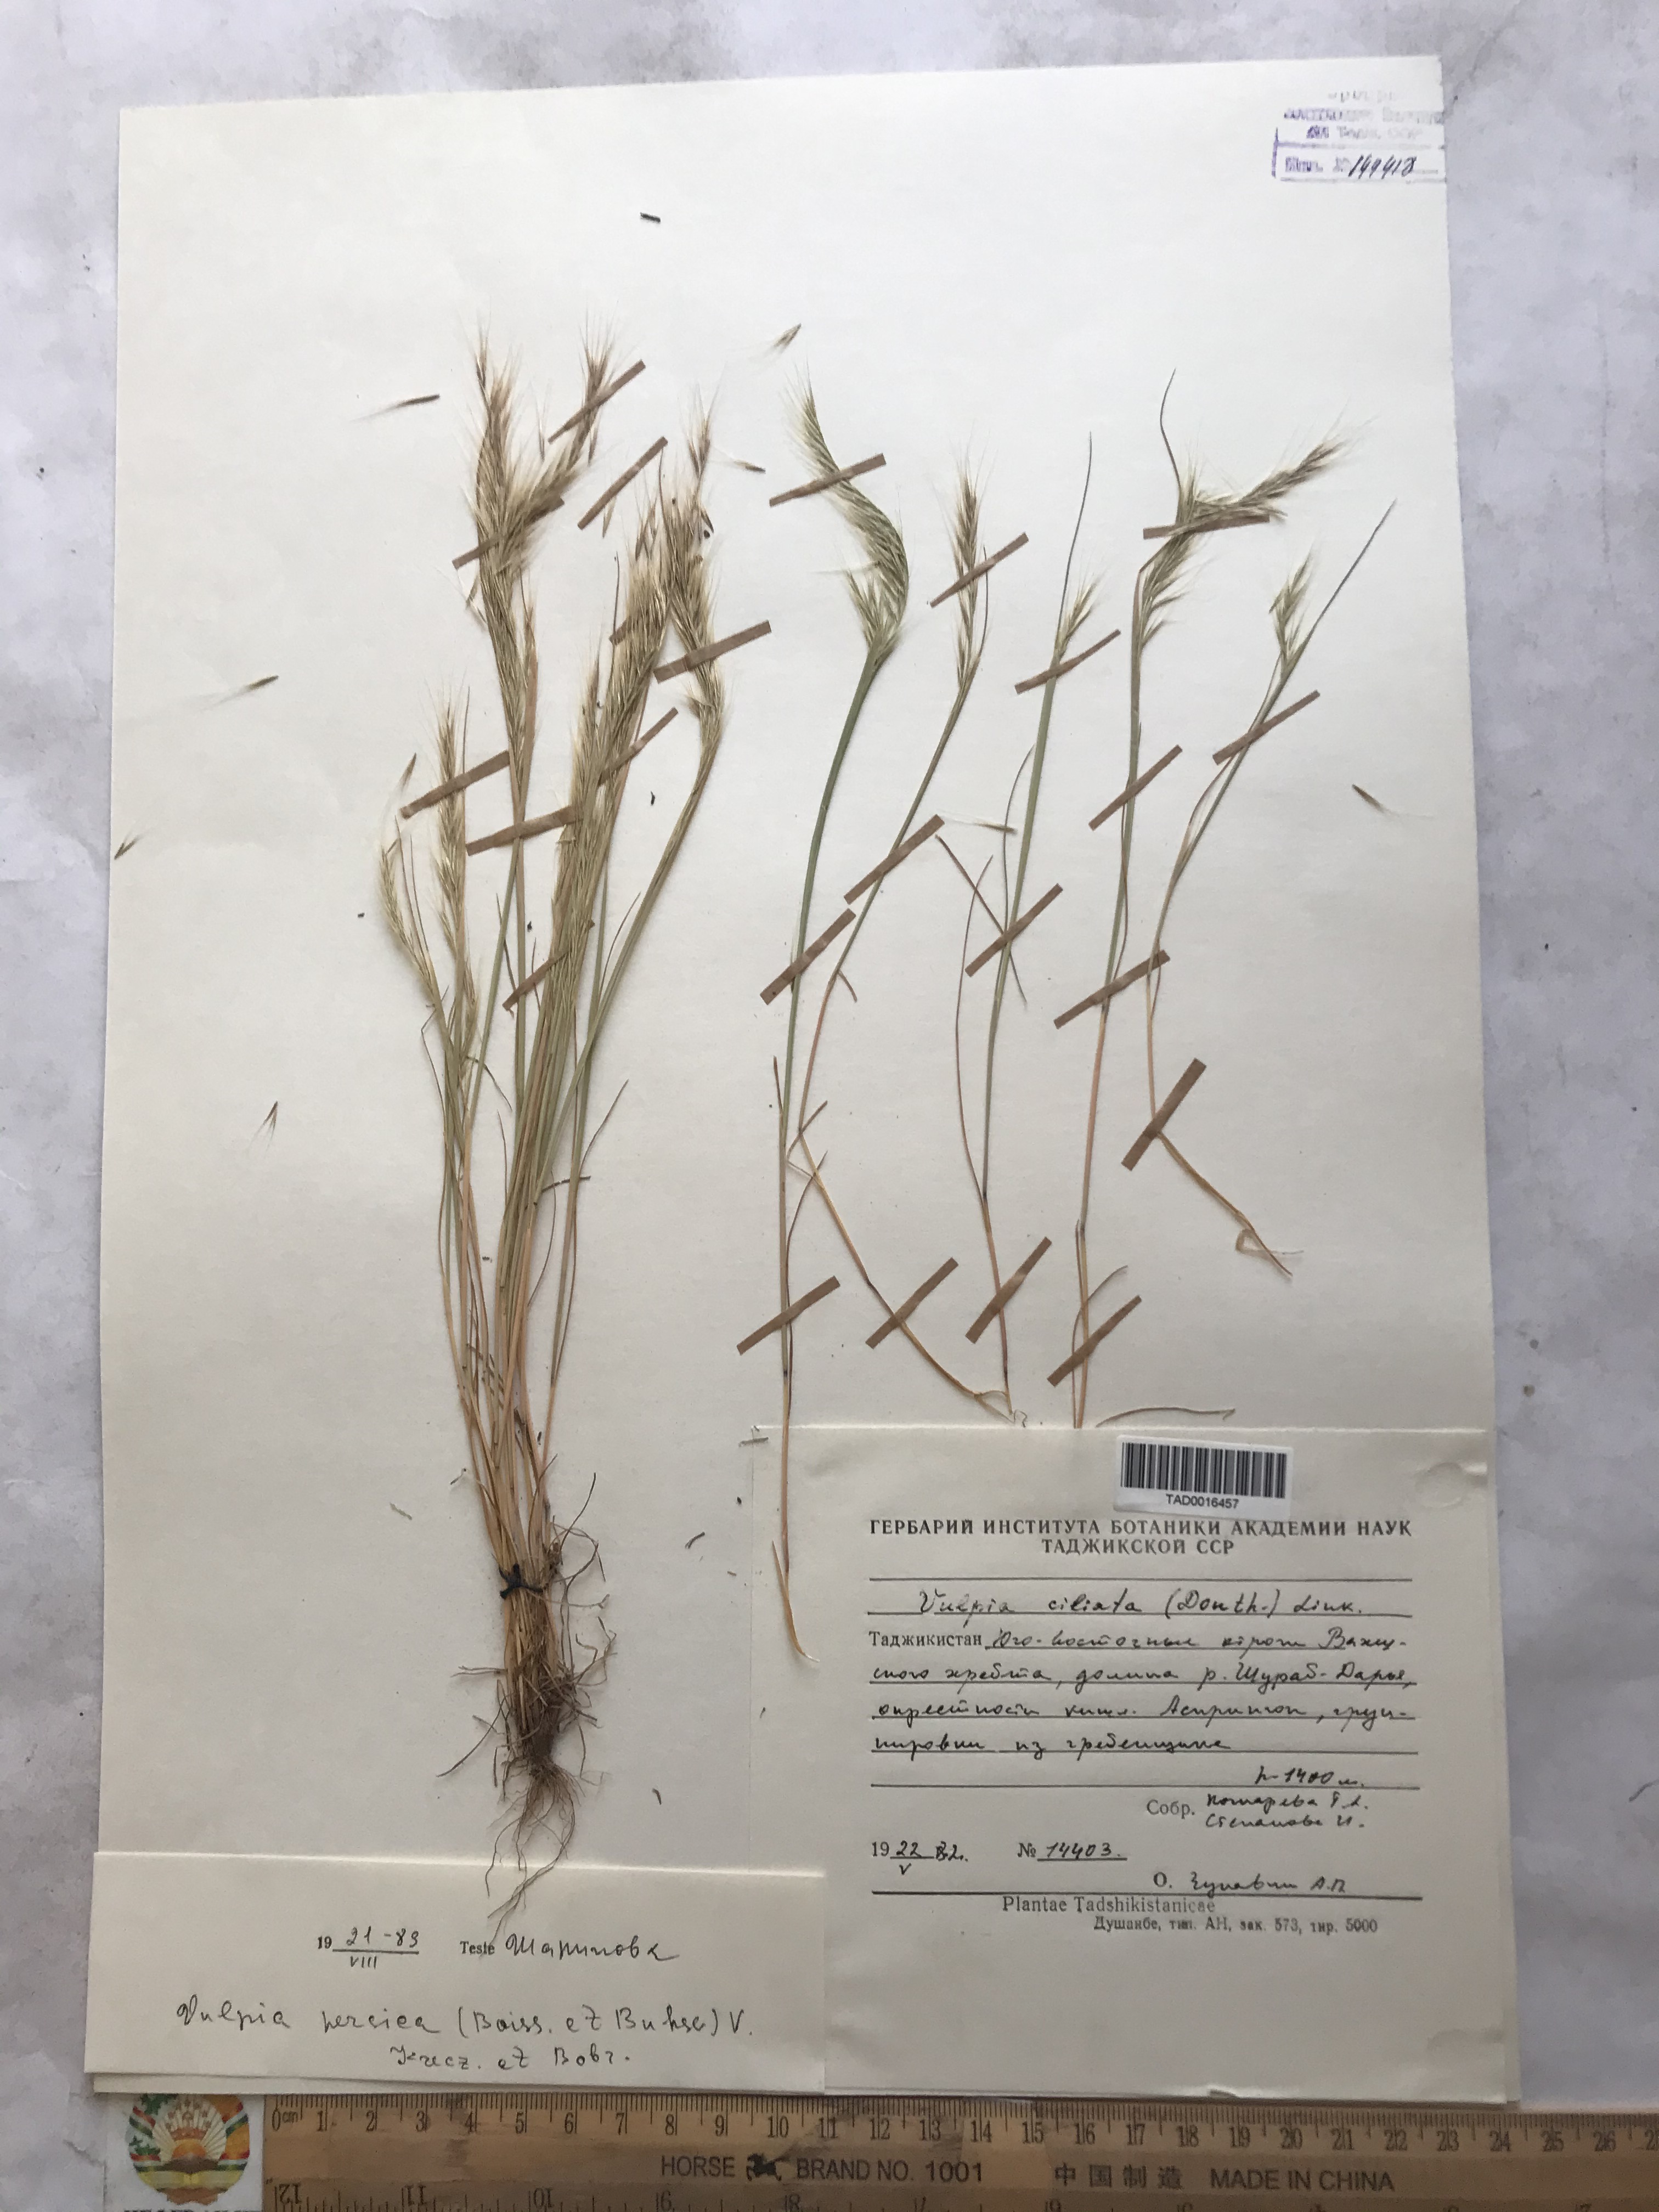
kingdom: Plantae
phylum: Tracheophyta
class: Liliopsida
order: Poales
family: Poaceae
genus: Festuca
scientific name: Festuca Vulpia persica
